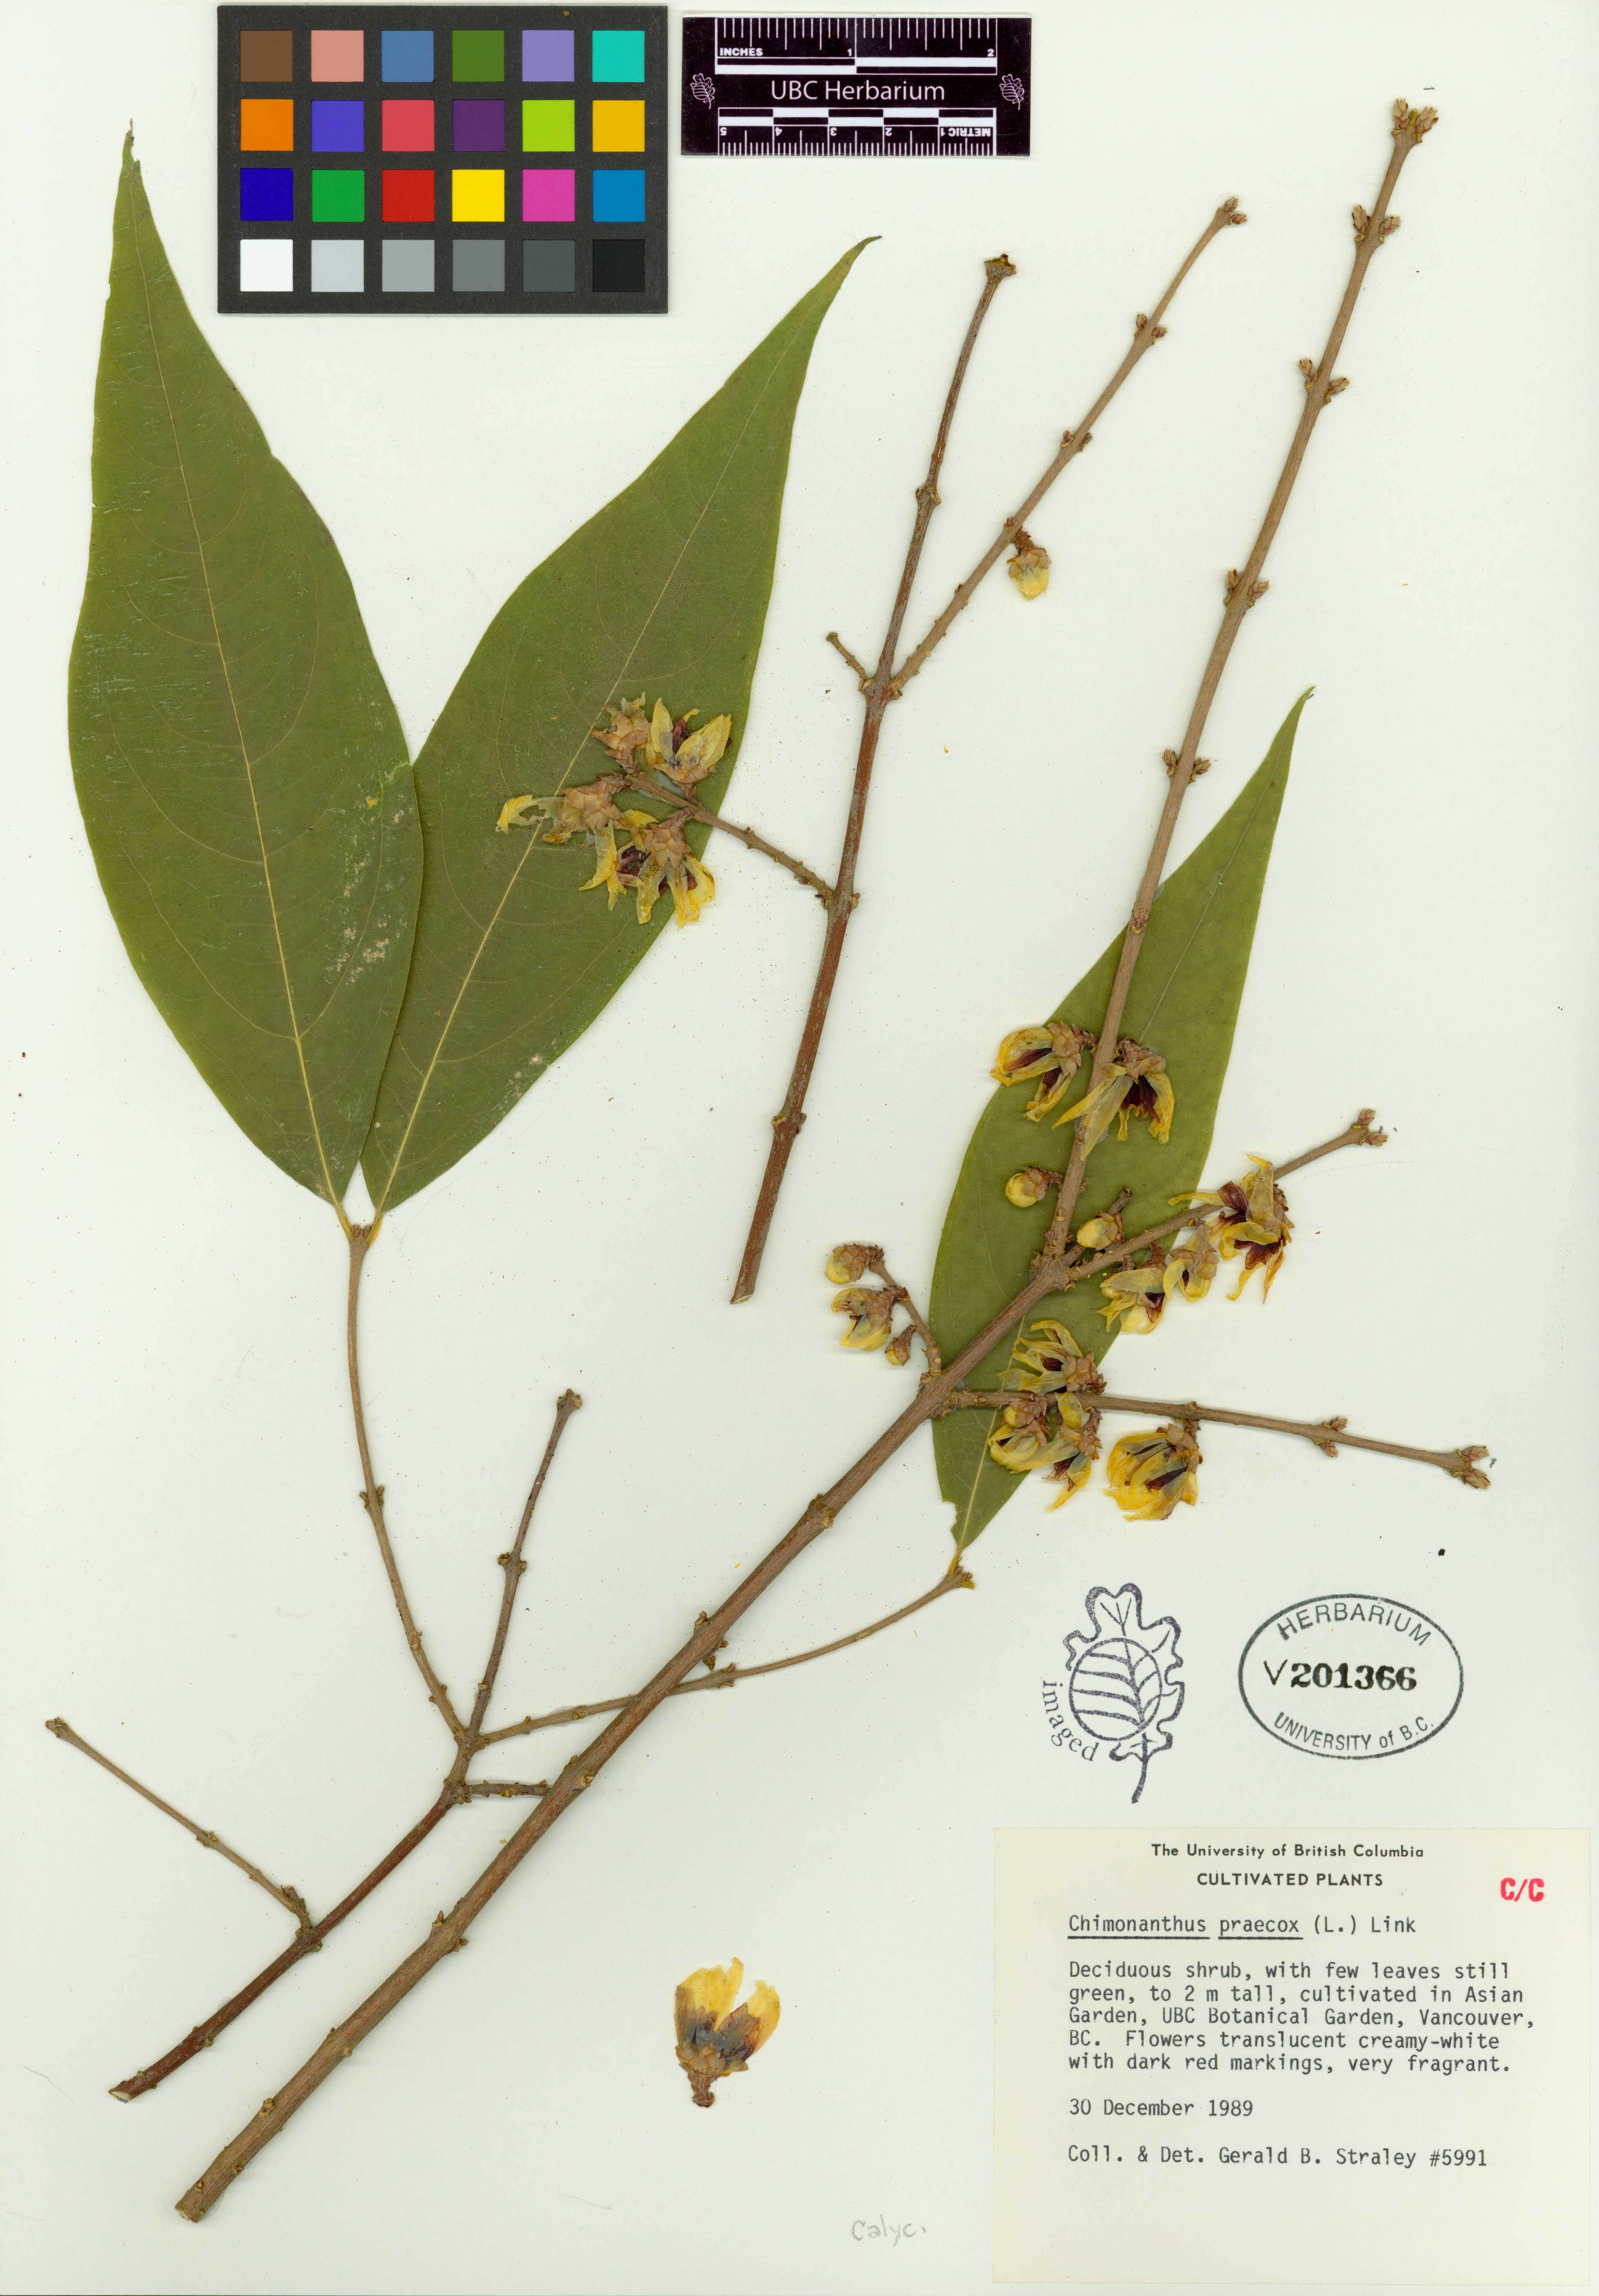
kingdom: Plantae
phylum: Tracheophyta
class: Magnoliopsida
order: Laurales
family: Calycanthaceae
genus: Chimonanthus
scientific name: Chimonanthus praecox
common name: Wintersweet
